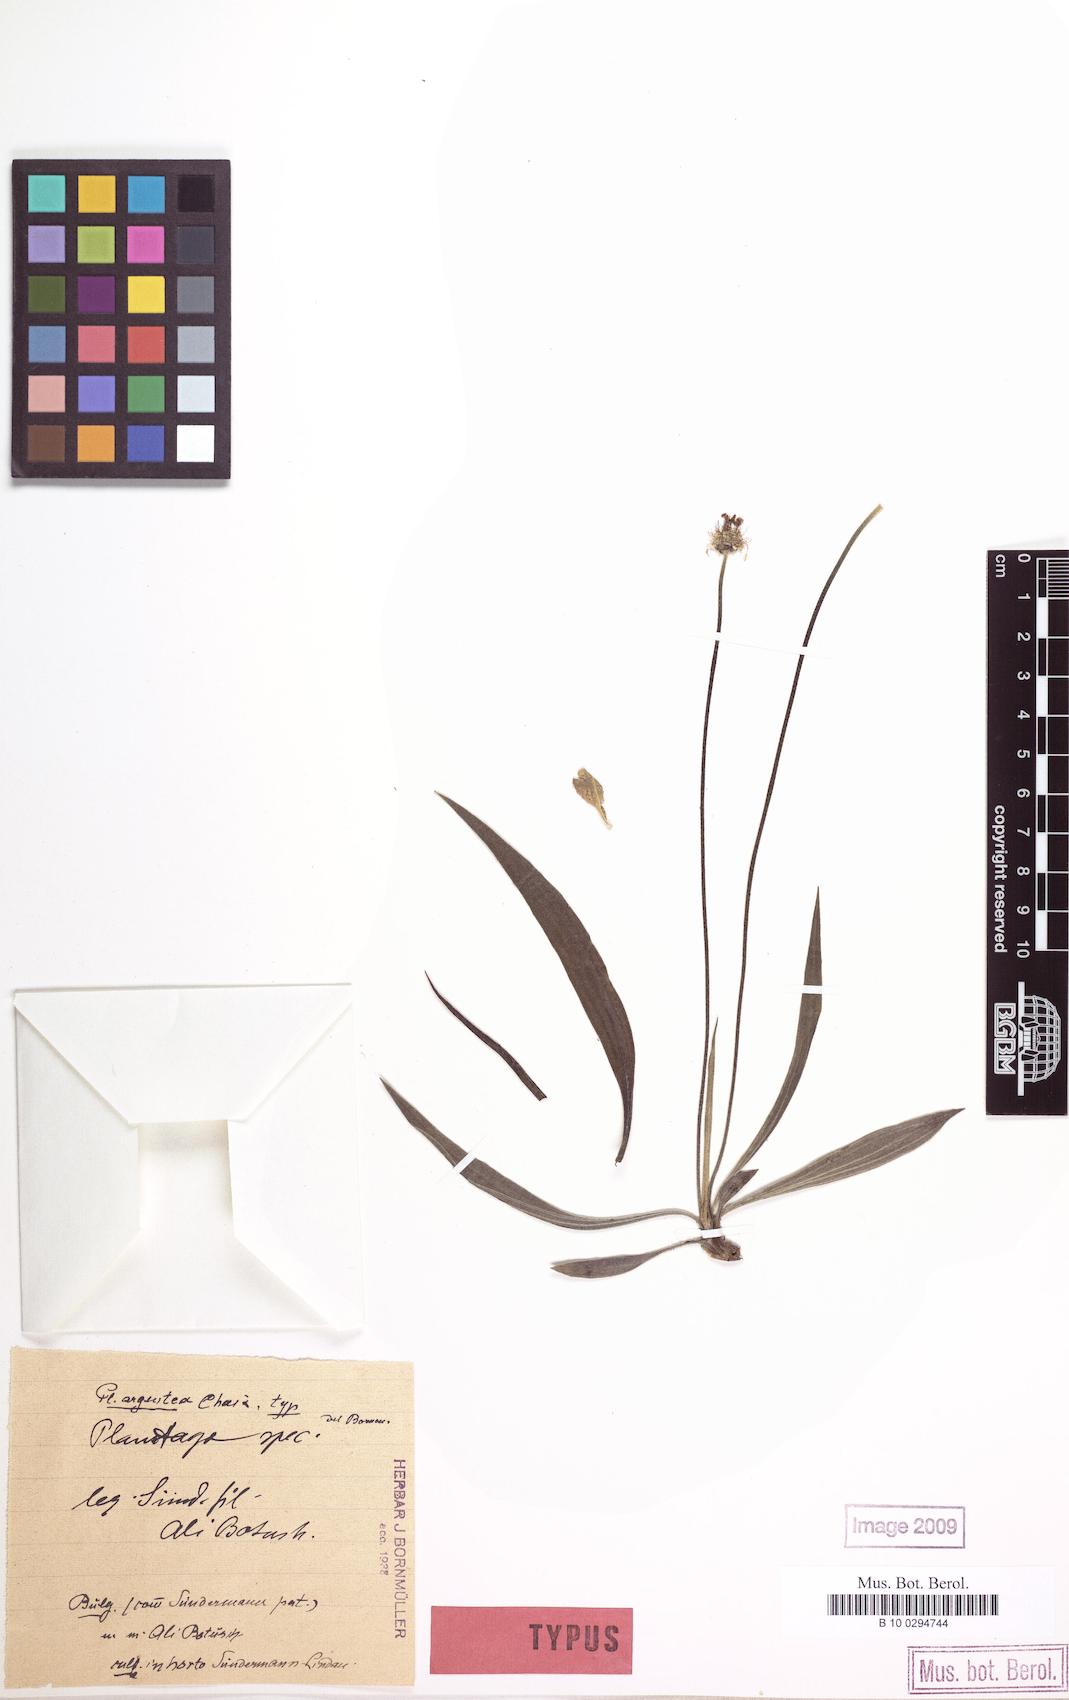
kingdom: Plantae
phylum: Tracheophyta
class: Magnoliopsida
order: Lamiales
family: Plantaginaceae
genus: Plantago
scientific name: Plantago argentea
